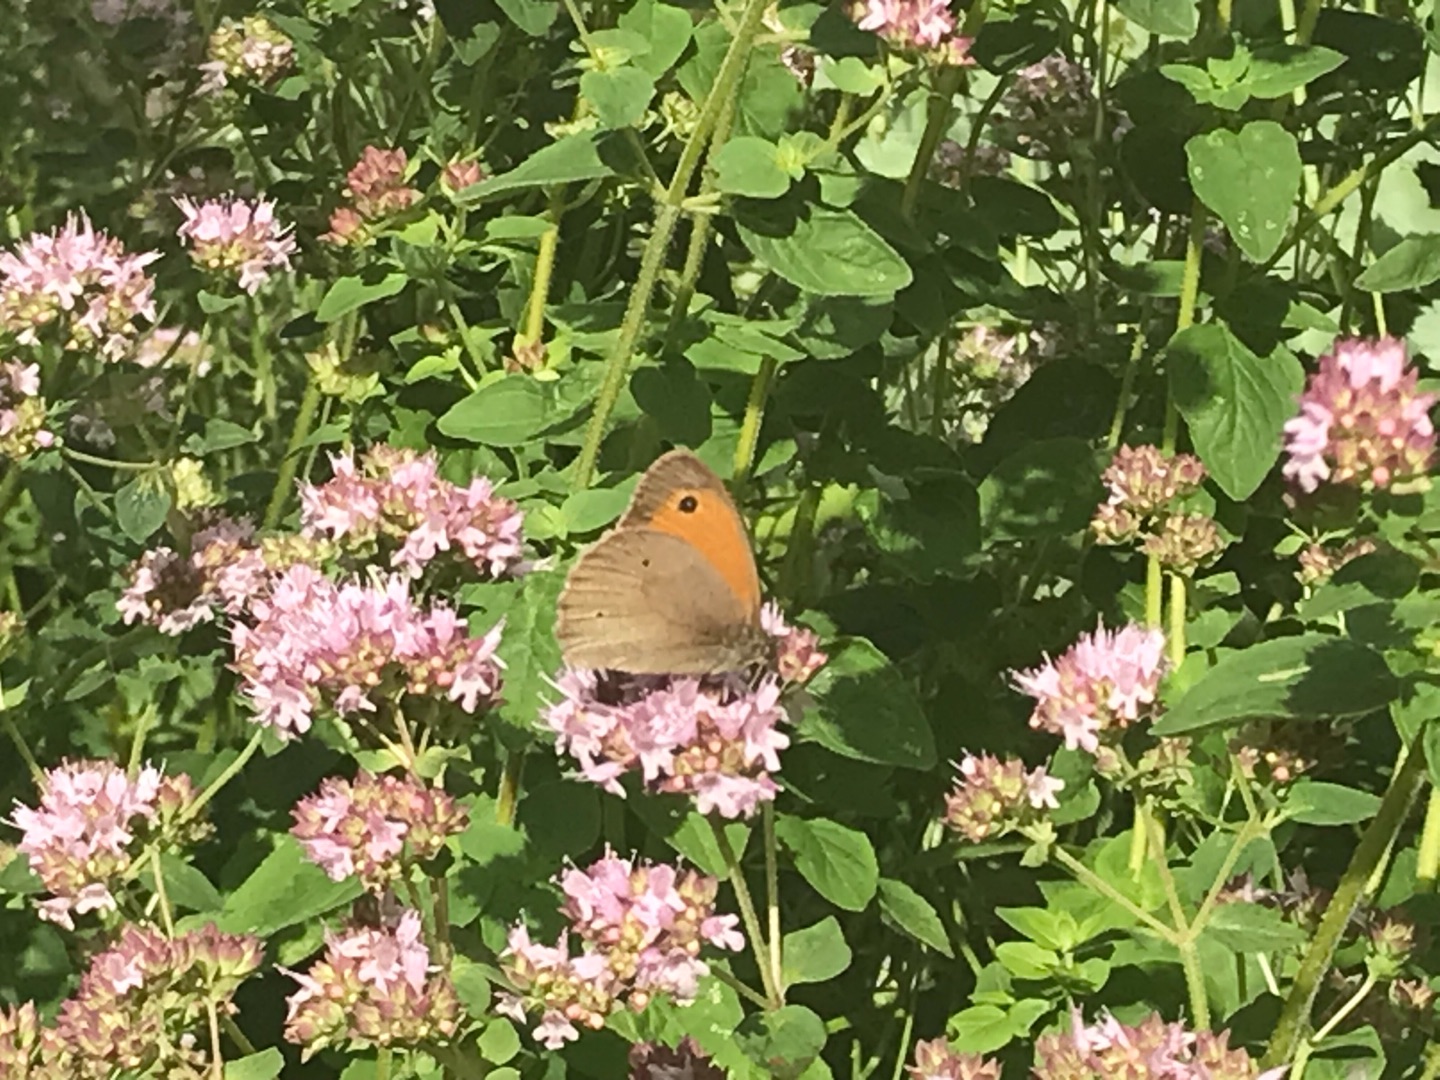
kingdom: Animalia
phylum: Arthropoda
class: Insecta
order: Lepidoptera
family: Nymphalidae
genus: Maniola
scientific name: Maniola jurtina
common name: Græsrandøje
